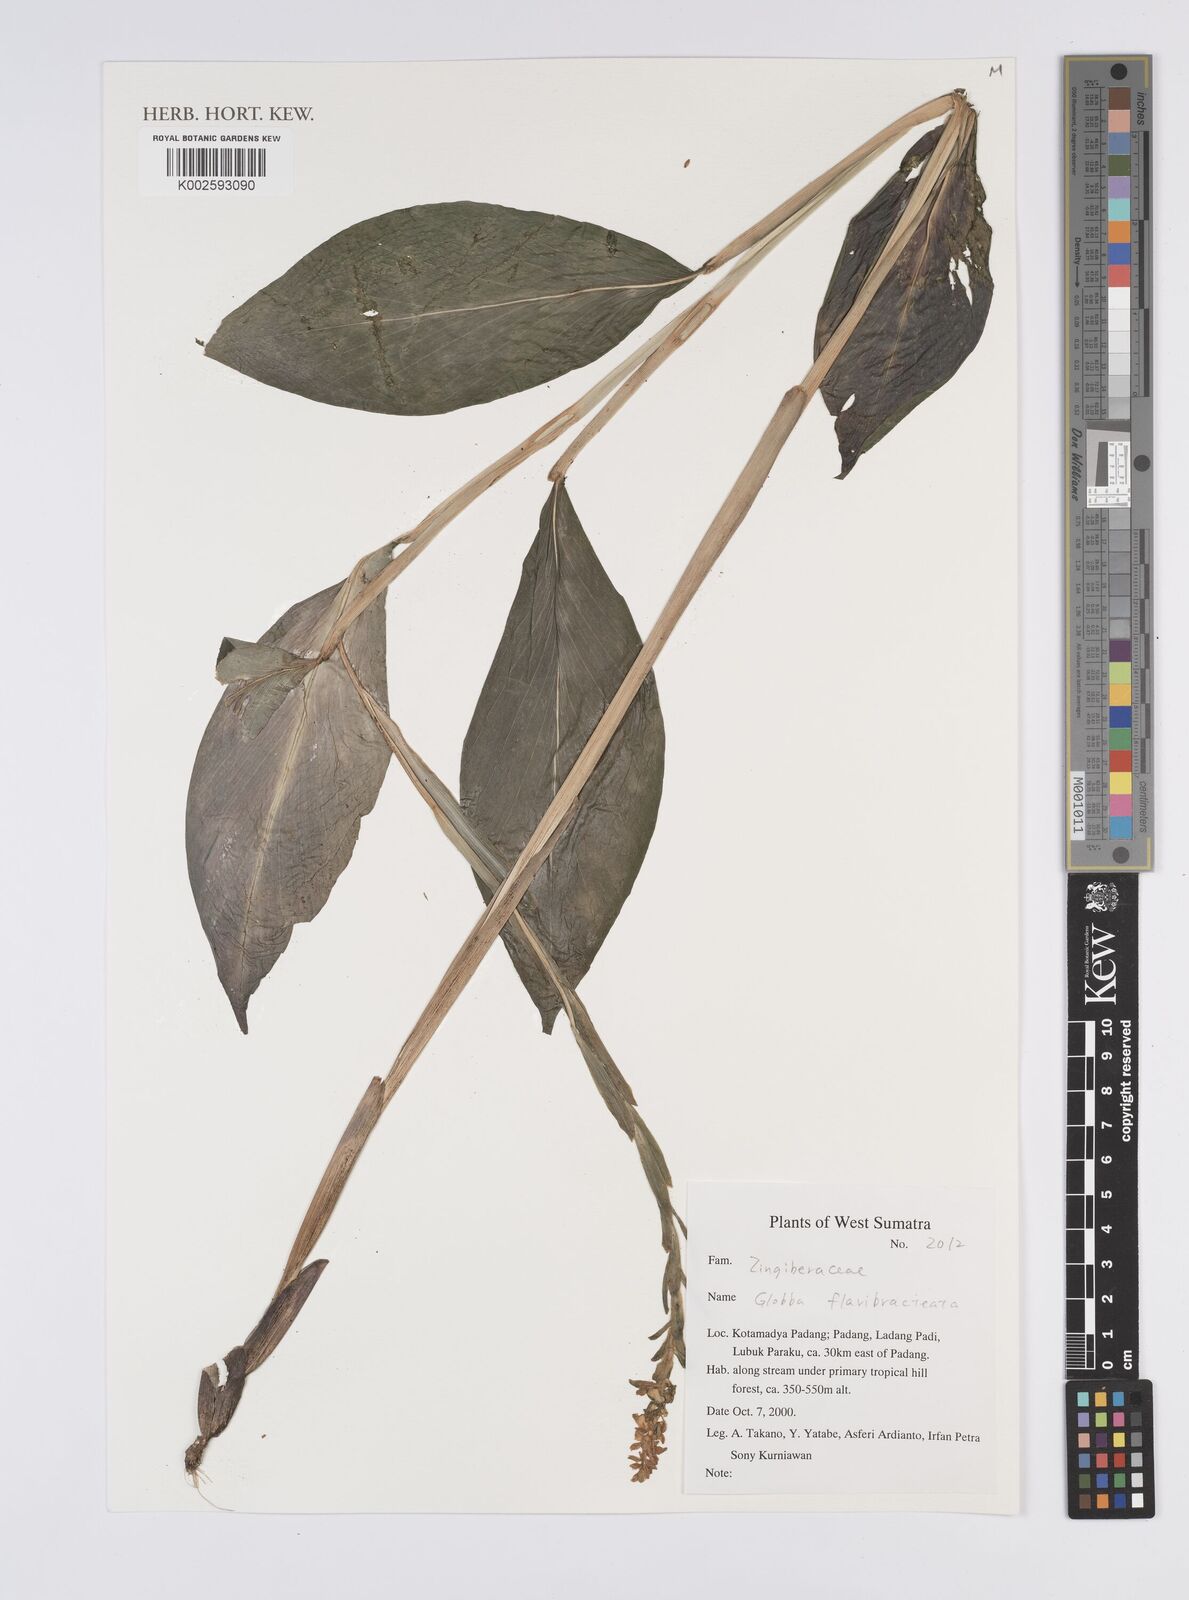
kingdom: Plantae
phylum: Tracheophyta
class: Liliopsida
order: Zingiberales
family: Zingiberaceae
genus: Globba
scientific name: Globba flavibracteata
